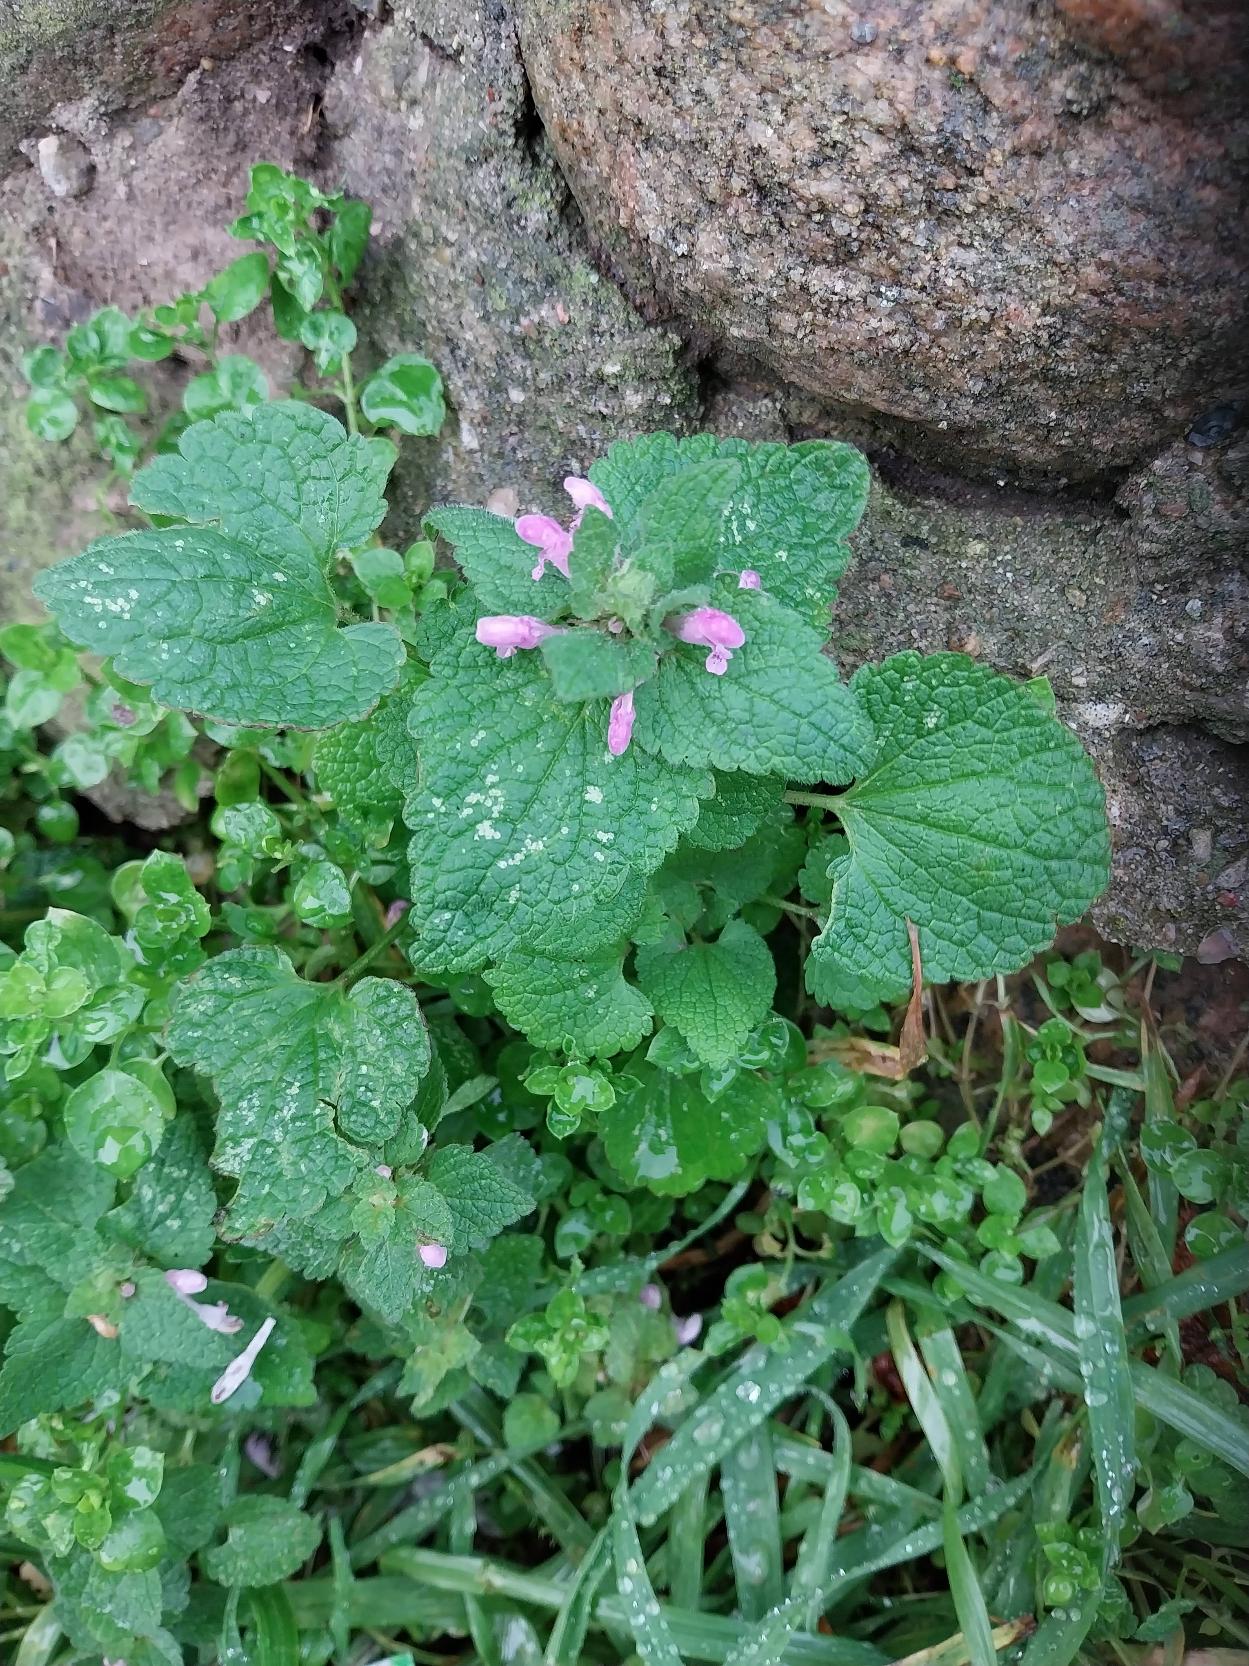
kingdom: Plantae
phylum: Tracheophyta
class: Magnoliopsida
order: Lamiales
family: Lamiaceae
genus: Lamium
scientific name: Lamium purpureum
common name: Rød tvetand
